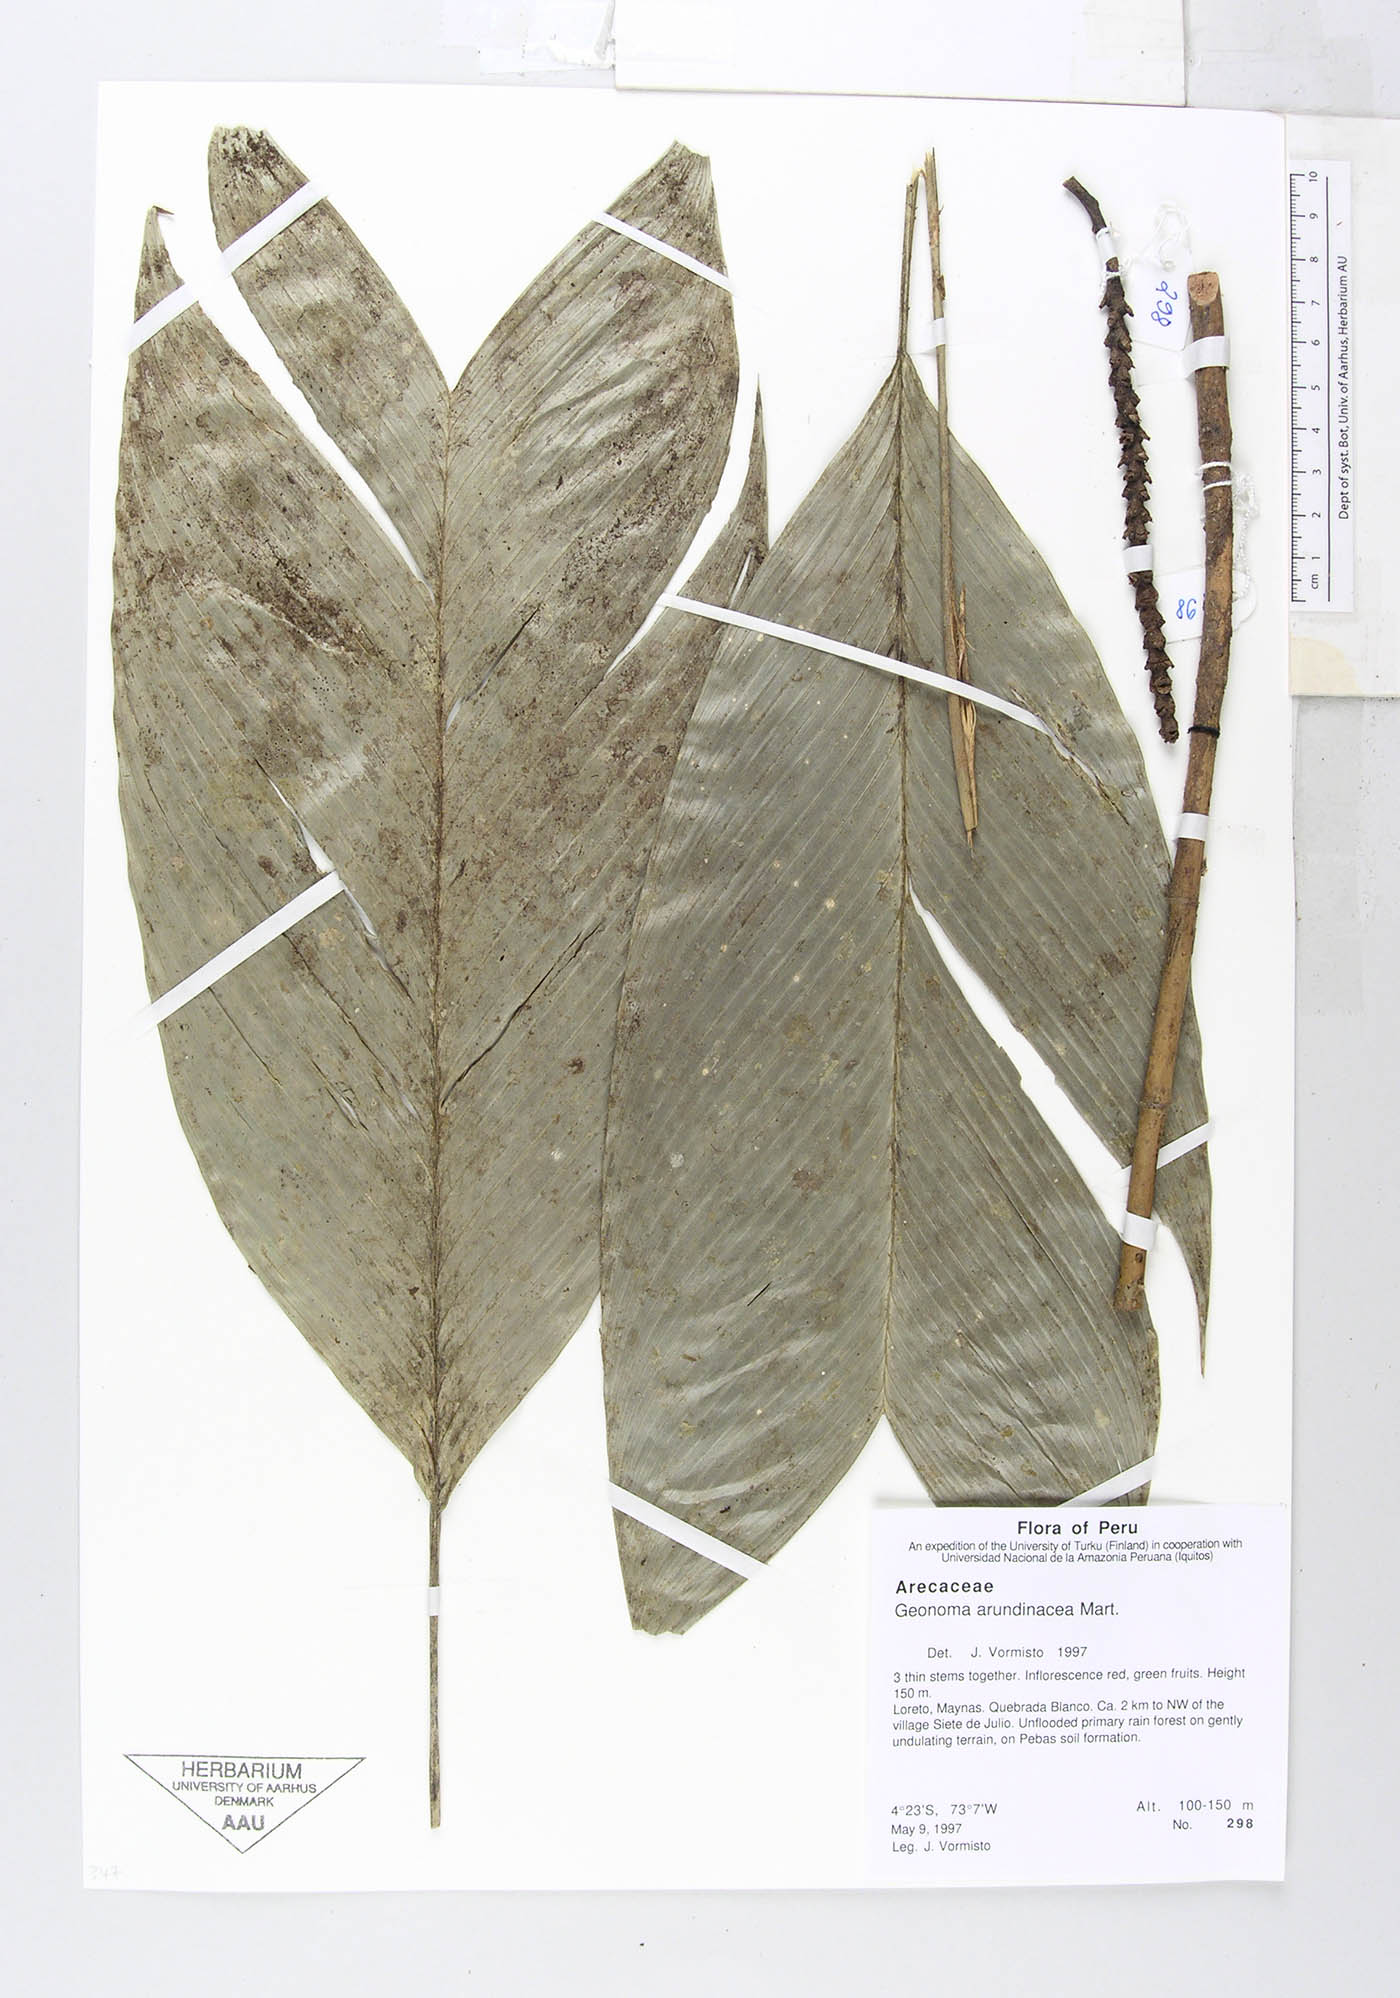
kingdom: Plantae
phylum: Tracheophyta
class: Liliopsida
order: Arecales
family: Arecaceae
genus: Geonoma
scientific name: Geonoma stricta
